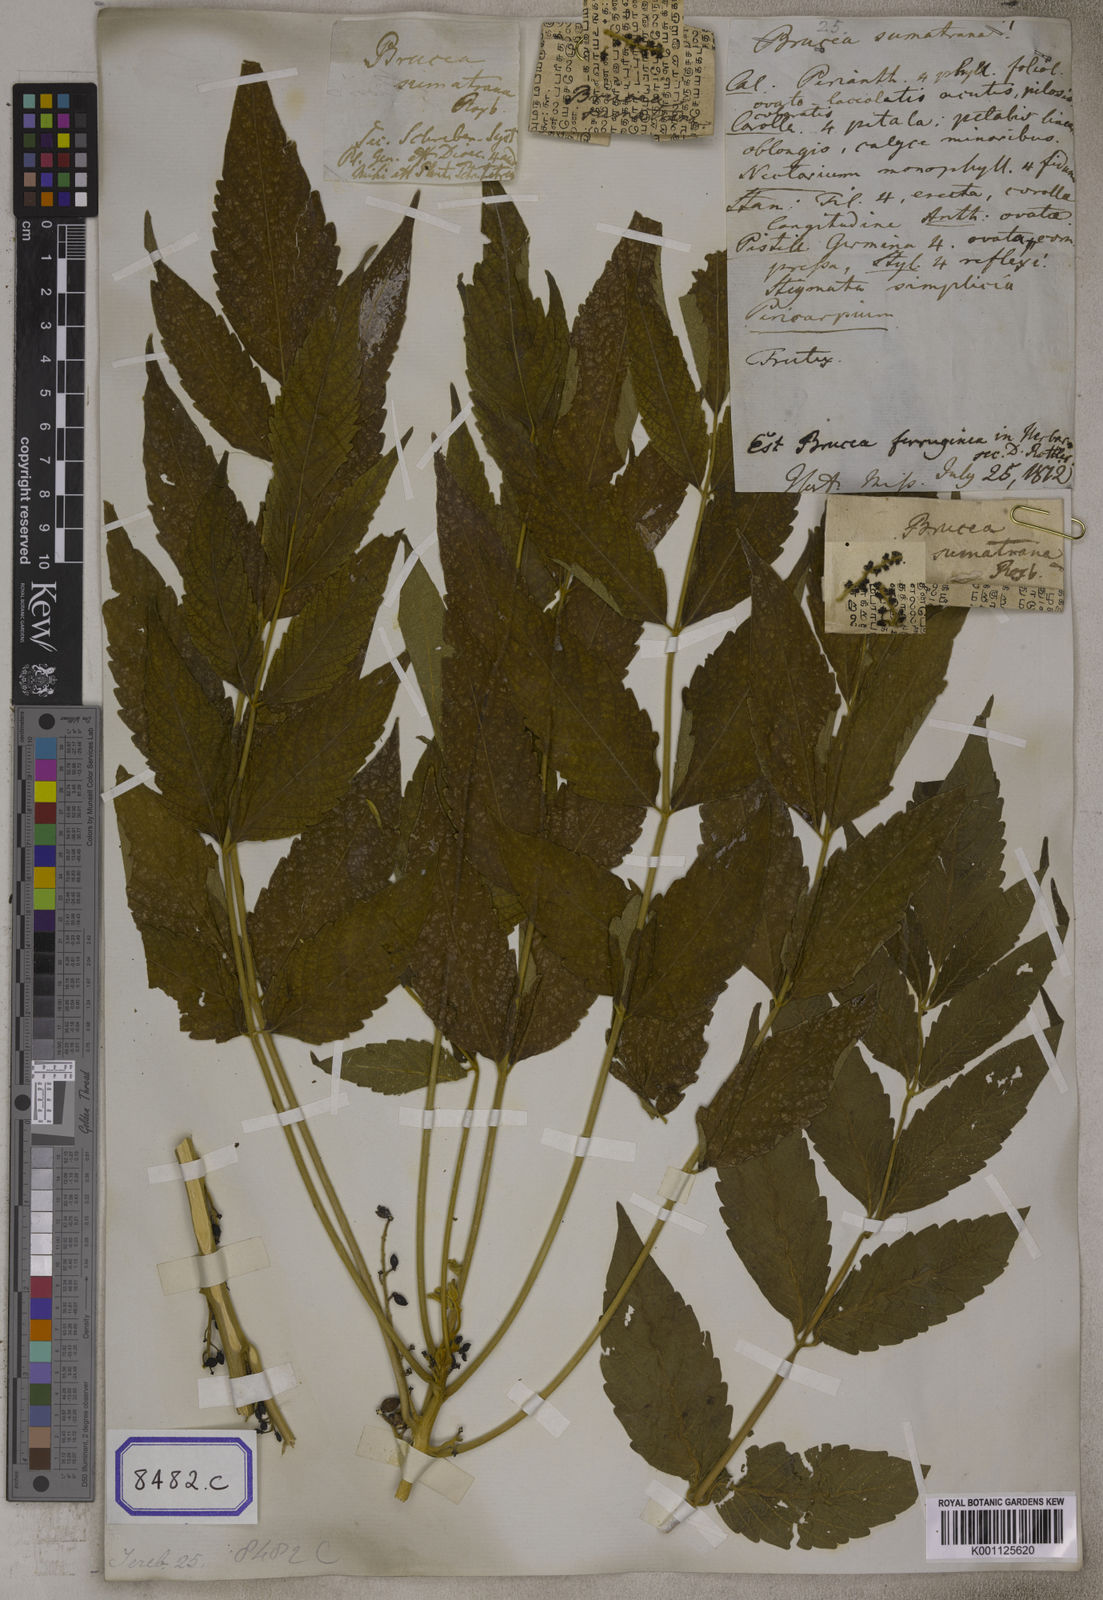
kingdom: Plantae
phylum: Tracheophyta
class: Magnoliopsida
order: Sapindales
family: Simaroubaceae
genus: Brucea
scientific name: Brucea javanica
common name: Macassar kernels
